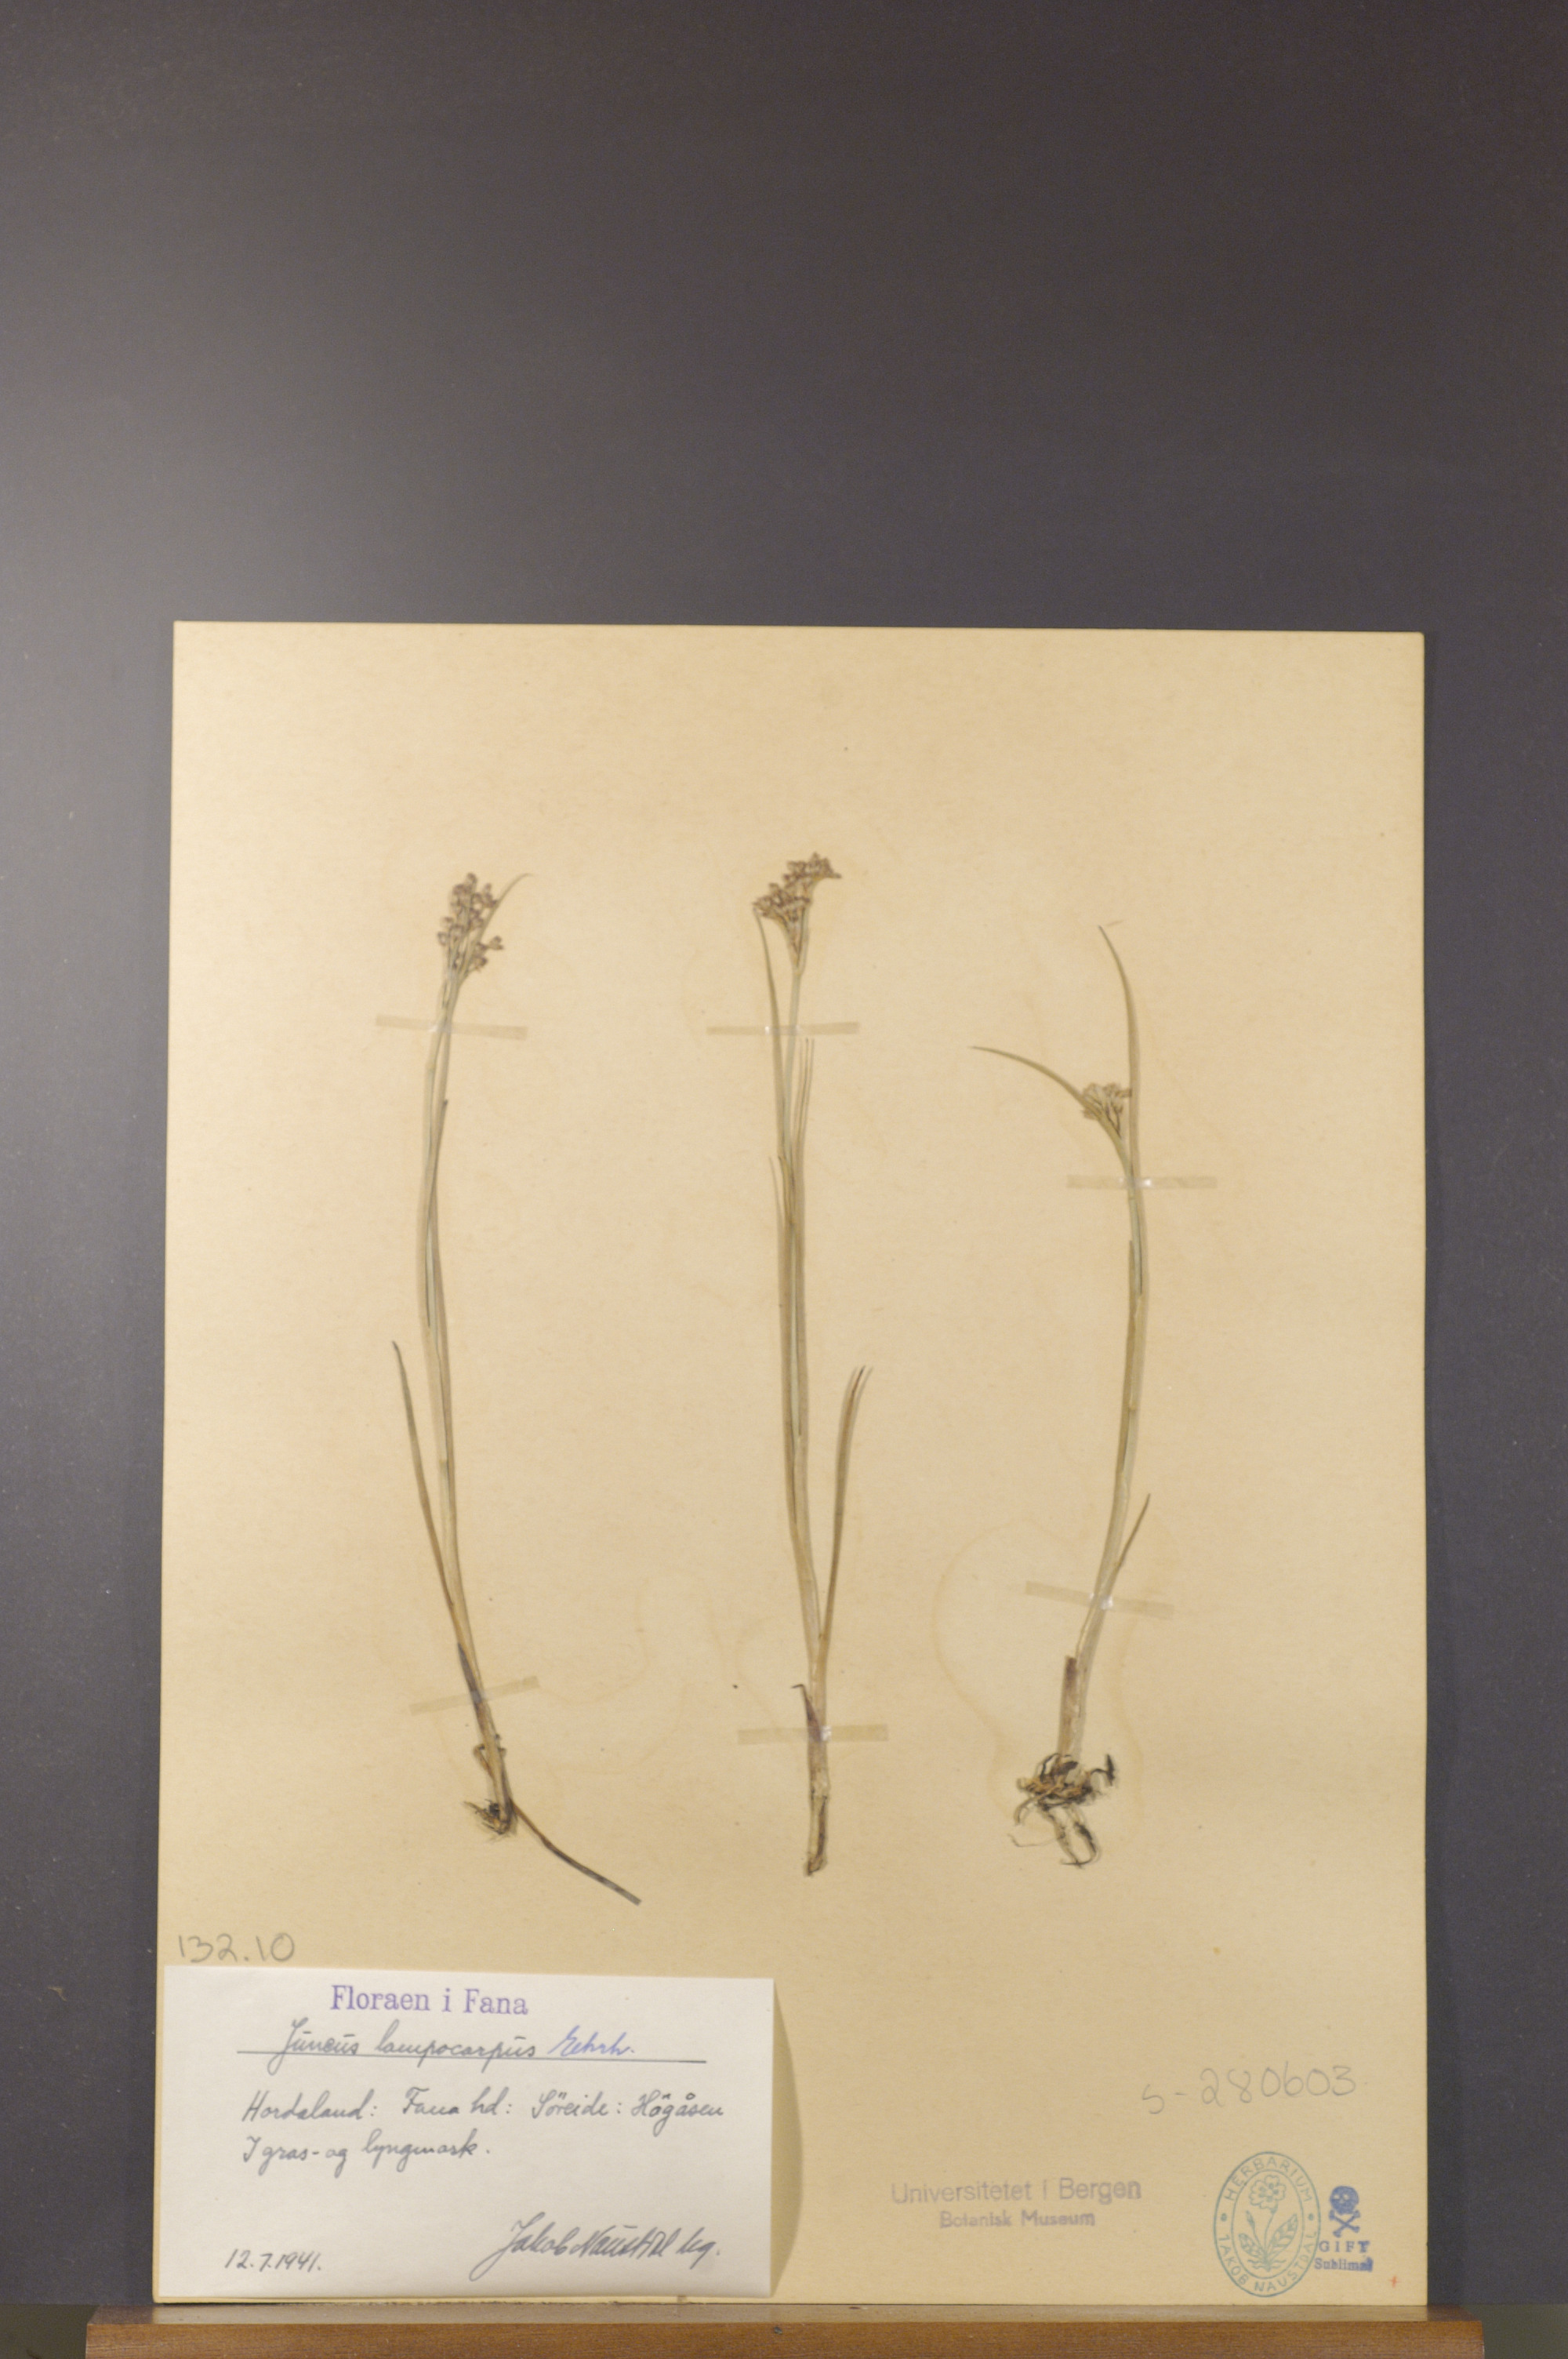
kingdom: Plantae
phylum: Tracheophyta
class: Liliopsida
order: Poales
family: Juncaceae
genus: Juncus
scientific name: Juncus articulatus
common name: Jointed rush
